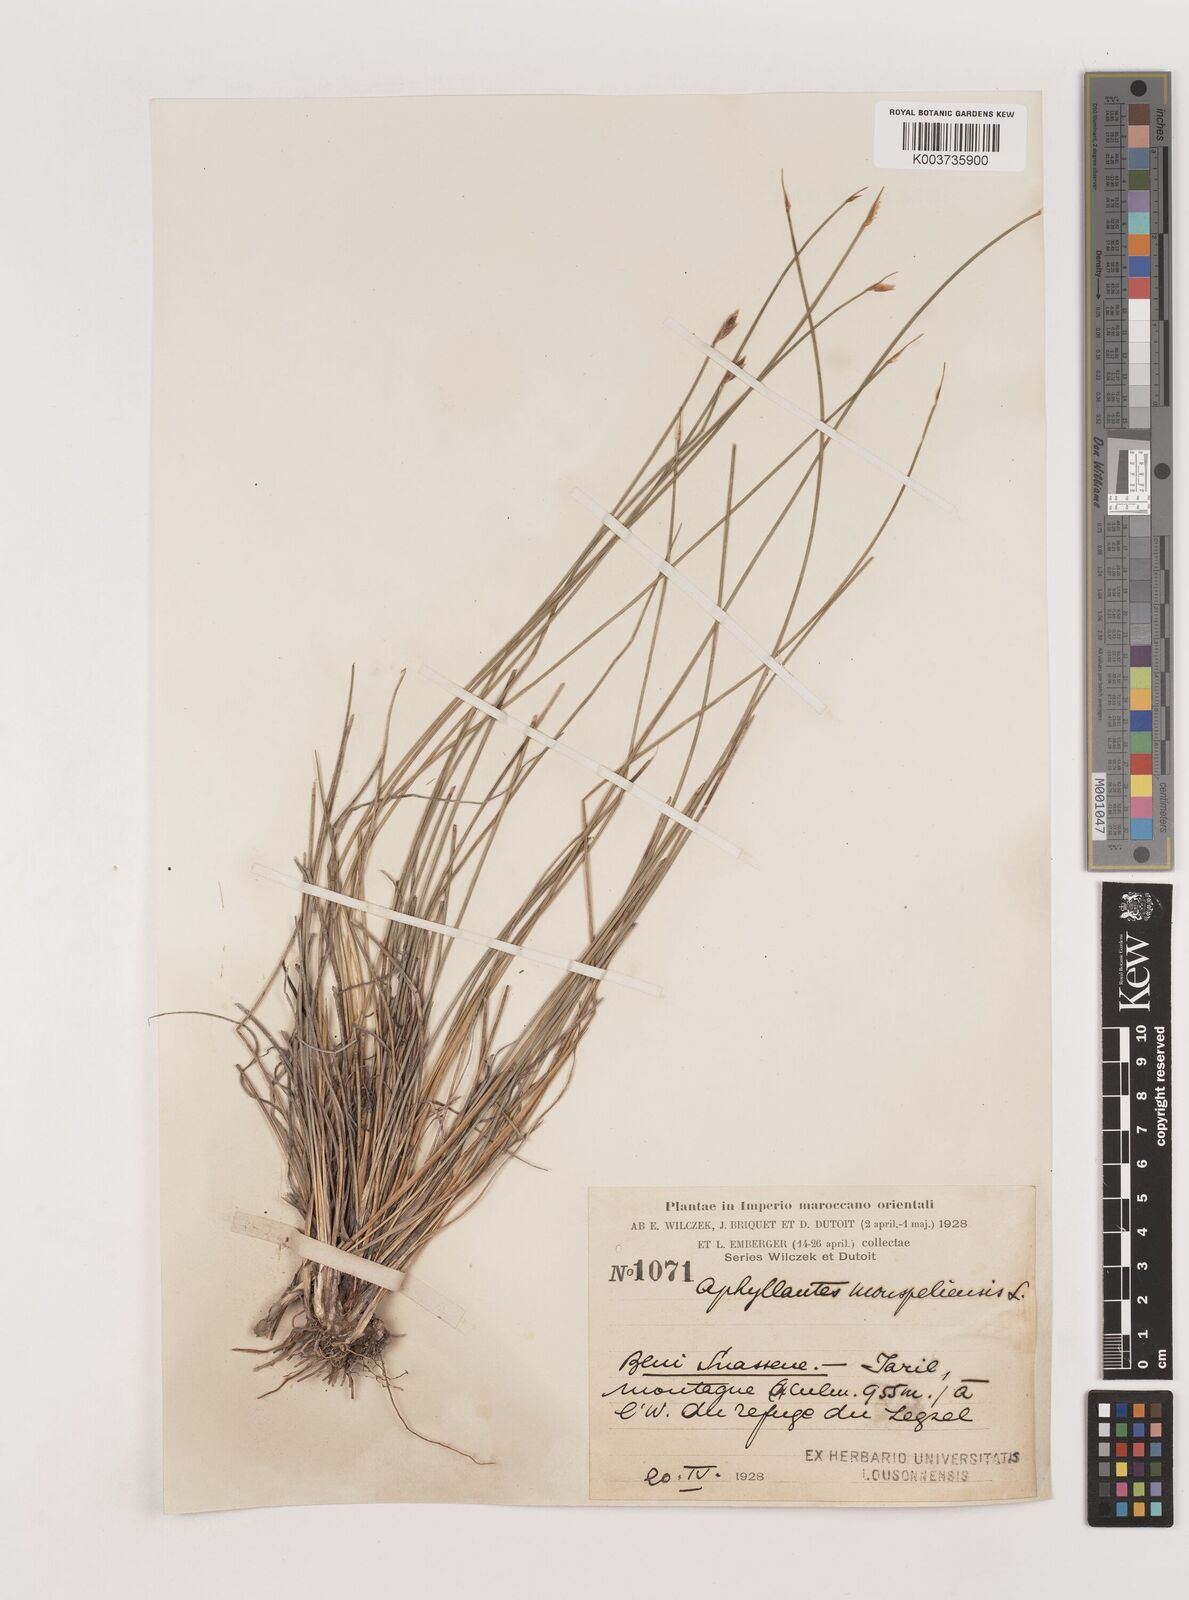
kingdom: Plantae
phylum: Tracheophyta
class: Liliopsida
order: Asparagales
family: Asparagaceae
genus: Aphyllanthes
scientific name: Aphyllanthes monspeliensis
